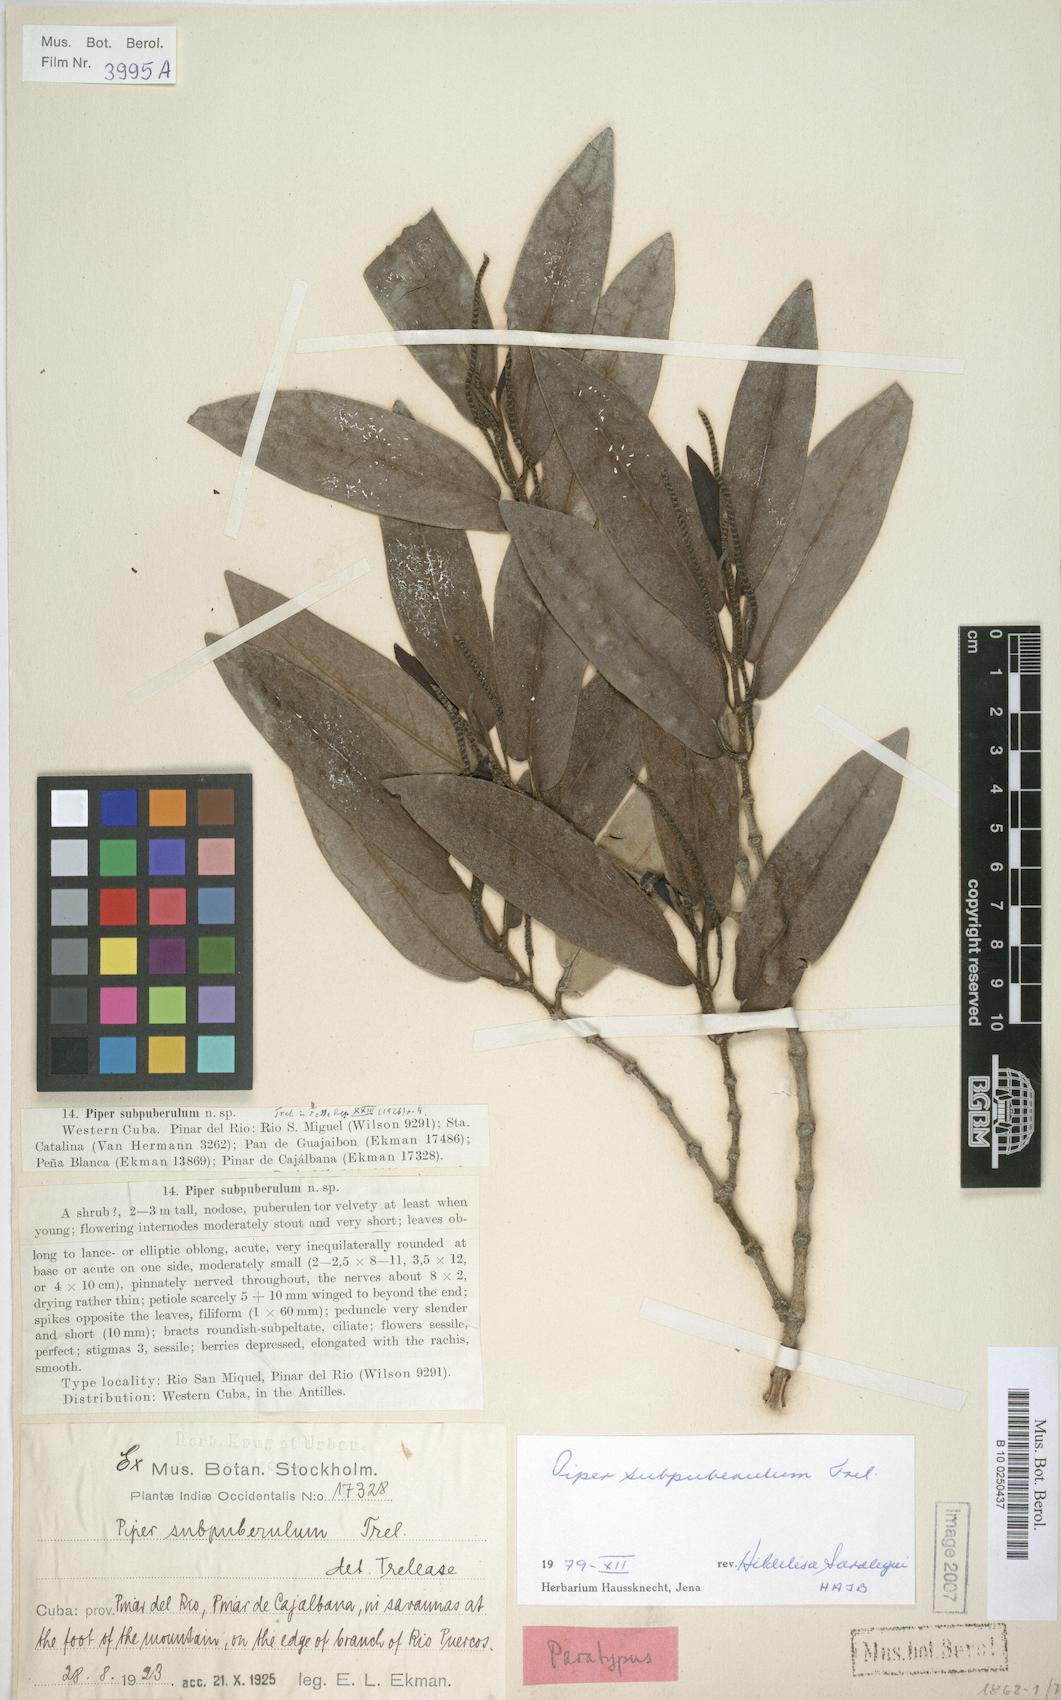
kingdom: Plantae
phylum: Tracheophyta
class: Magnoliopsida
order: Piperales
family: Piperaceae
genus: Piper
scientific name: Piper arboreum
